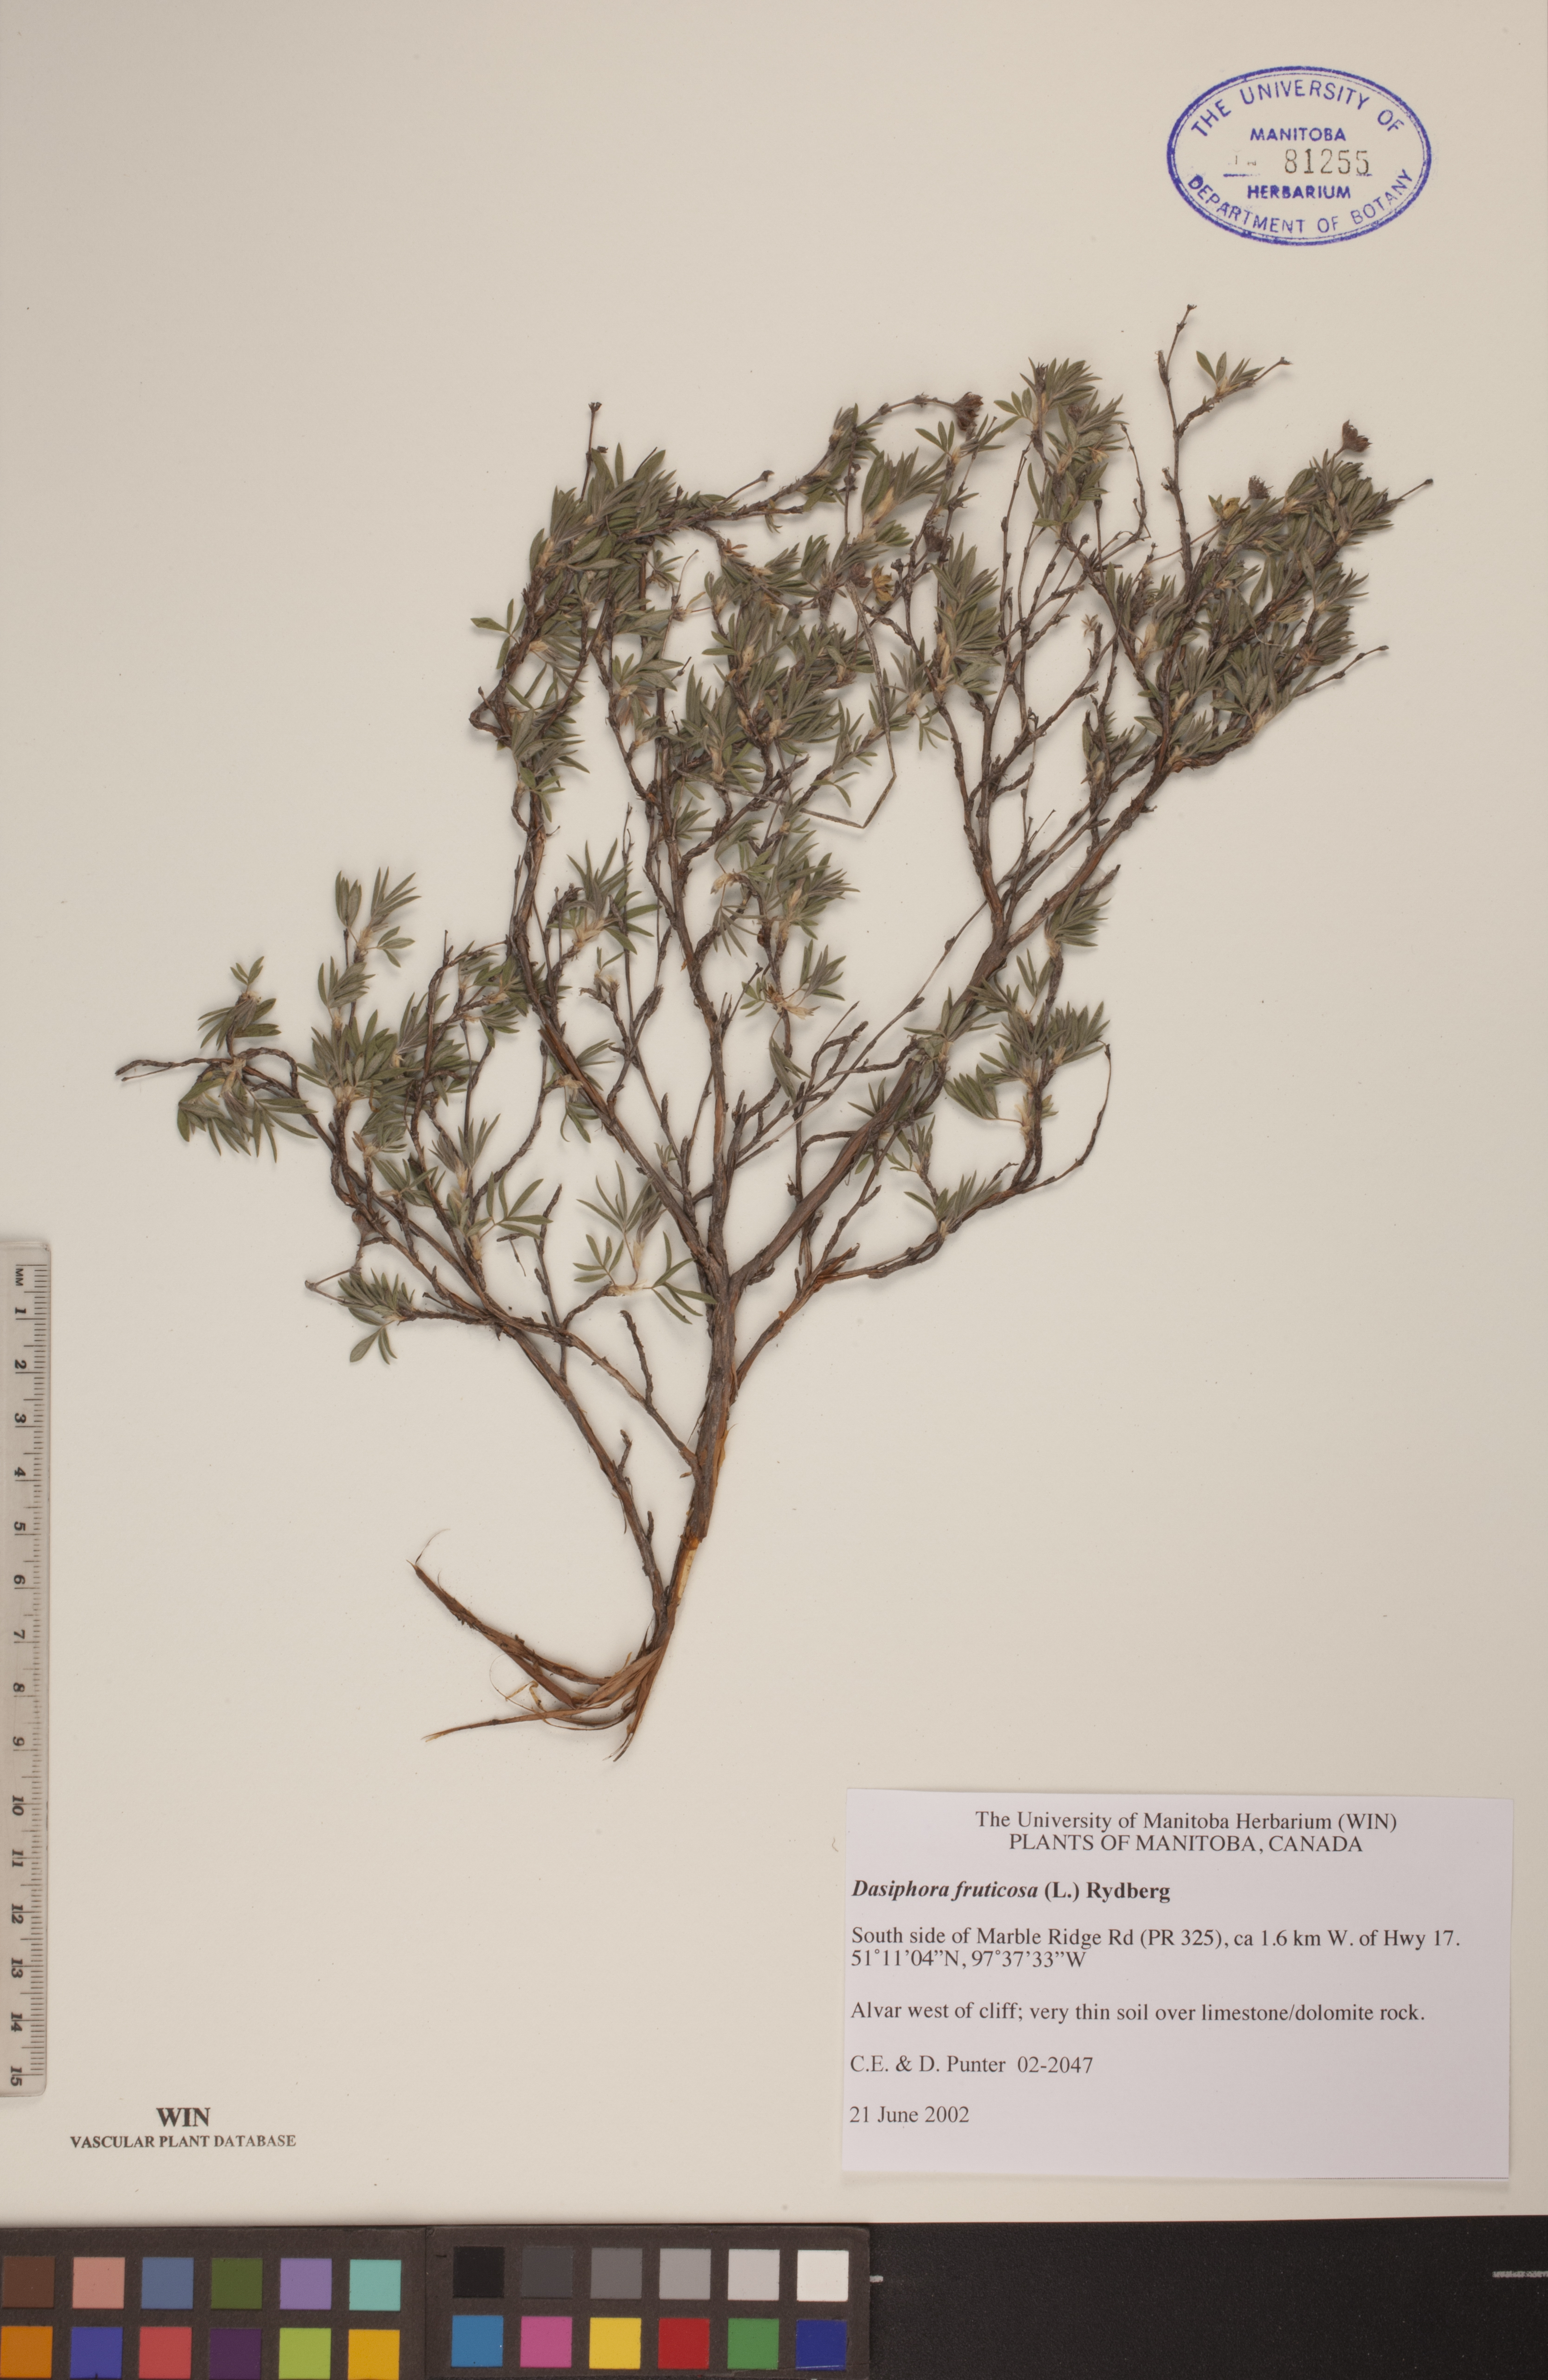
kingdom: Plantae
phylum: Tracheophyta
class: Magnoliopsida
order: Rosales
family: Rosaceae
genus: Dasiphora
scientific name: Dasiphora fruticosa
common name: Shrubby cinquefoil
